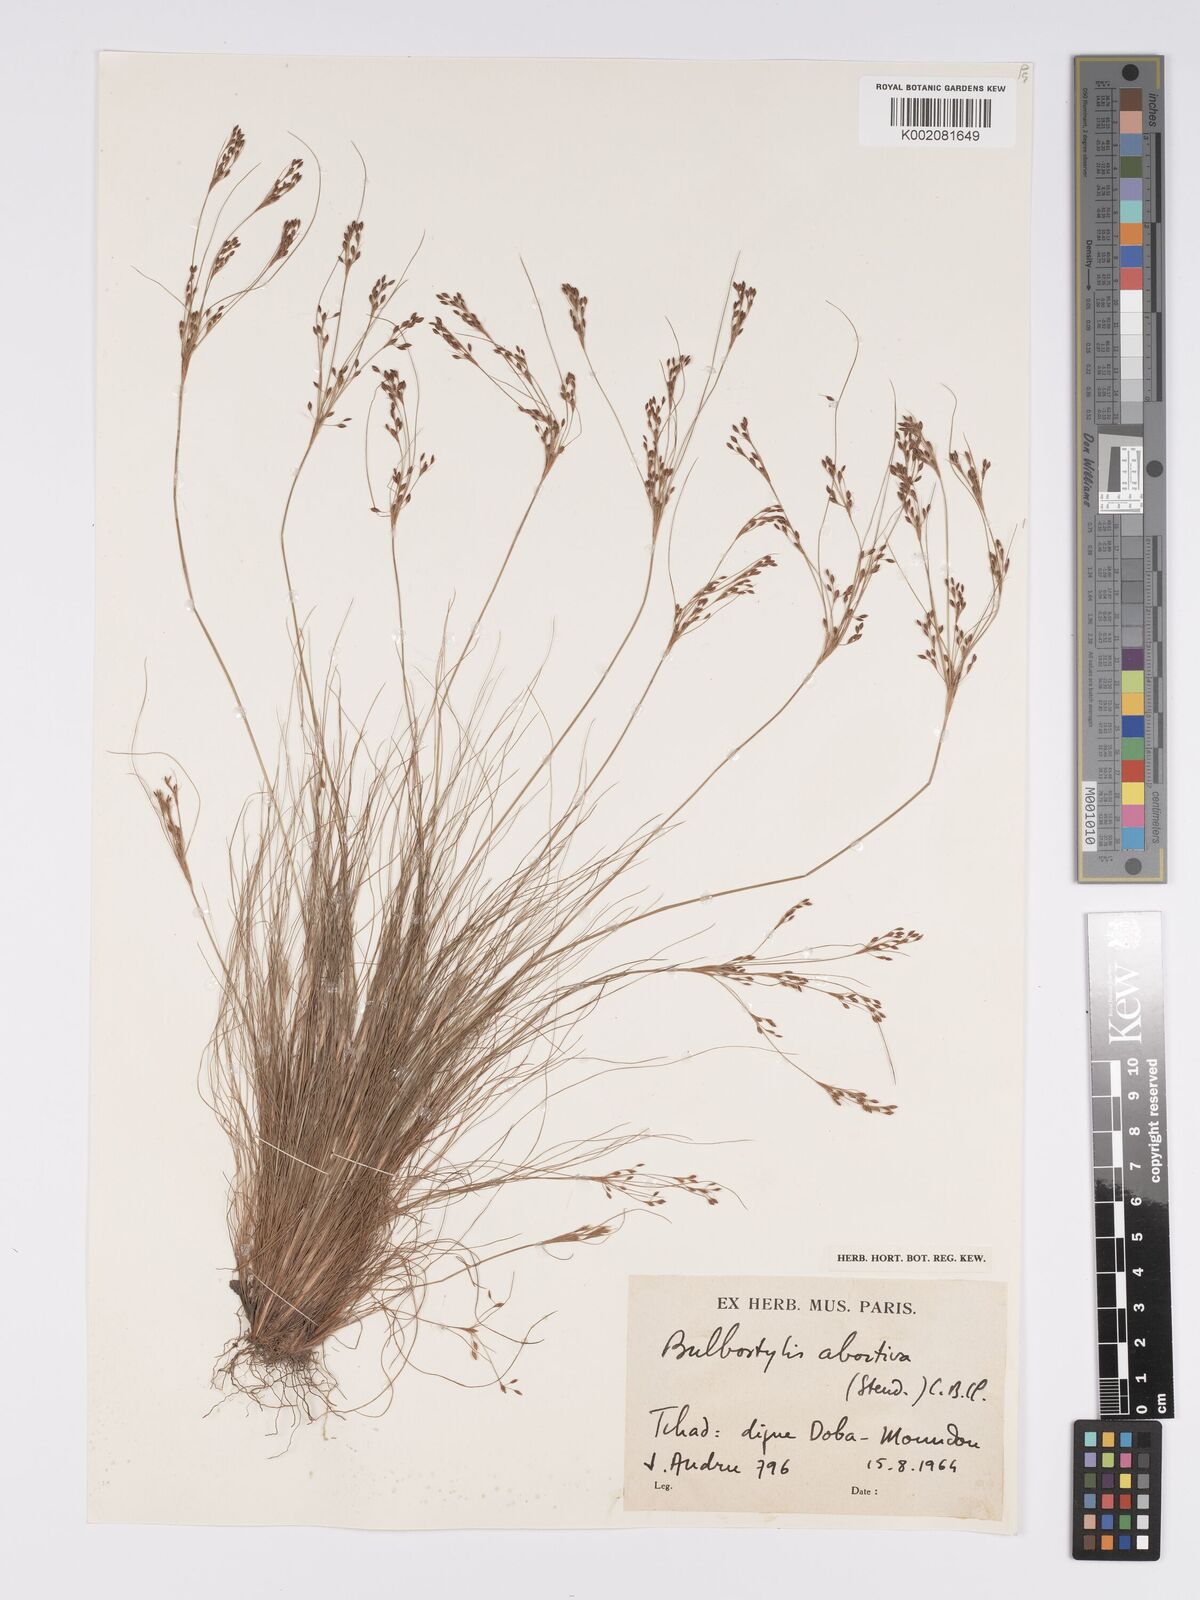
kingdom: Plantae
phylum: Tracheophyta
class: Liliopsida
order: Poales
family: Cyperaceae
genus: Bulbostylis
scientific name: Bulbostylis abortiva
